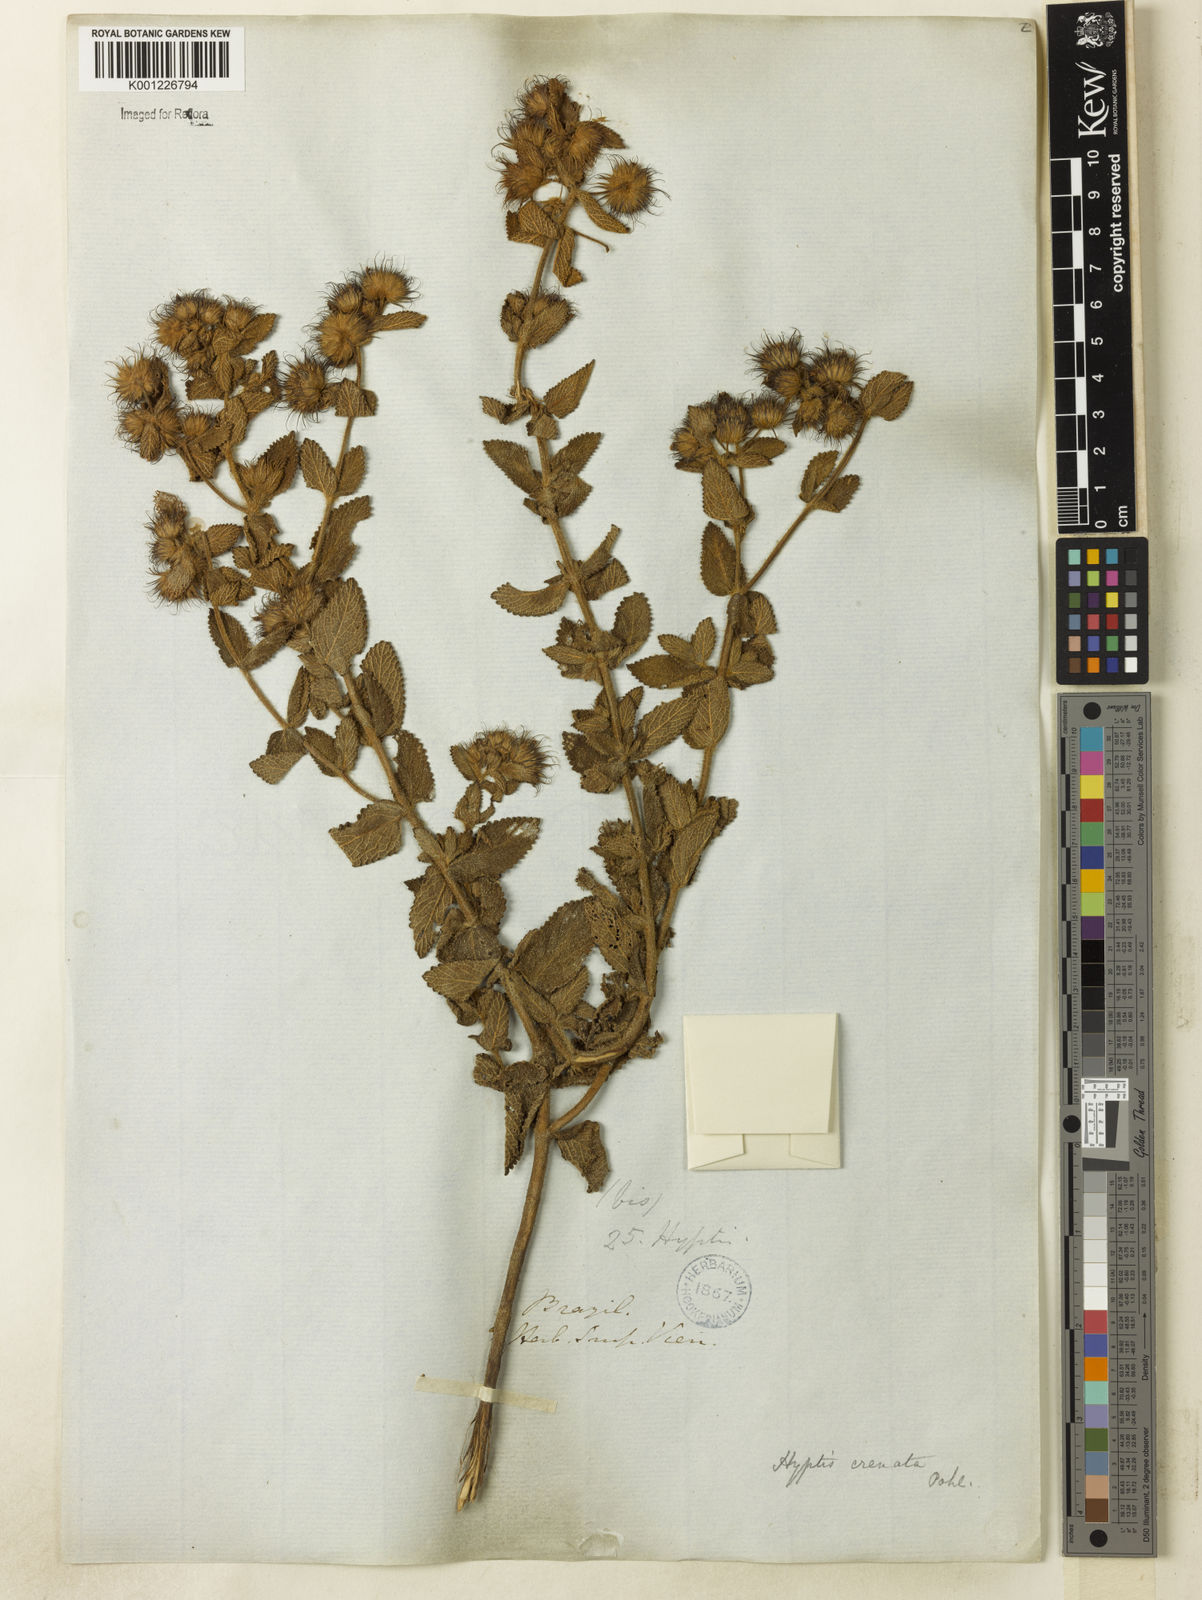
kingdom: Plantae
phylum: Tracheophyta
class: Magnoliopsida
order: Lamiales
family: Lamiaceae
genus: Hyptis
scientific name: Hyptis crenata
